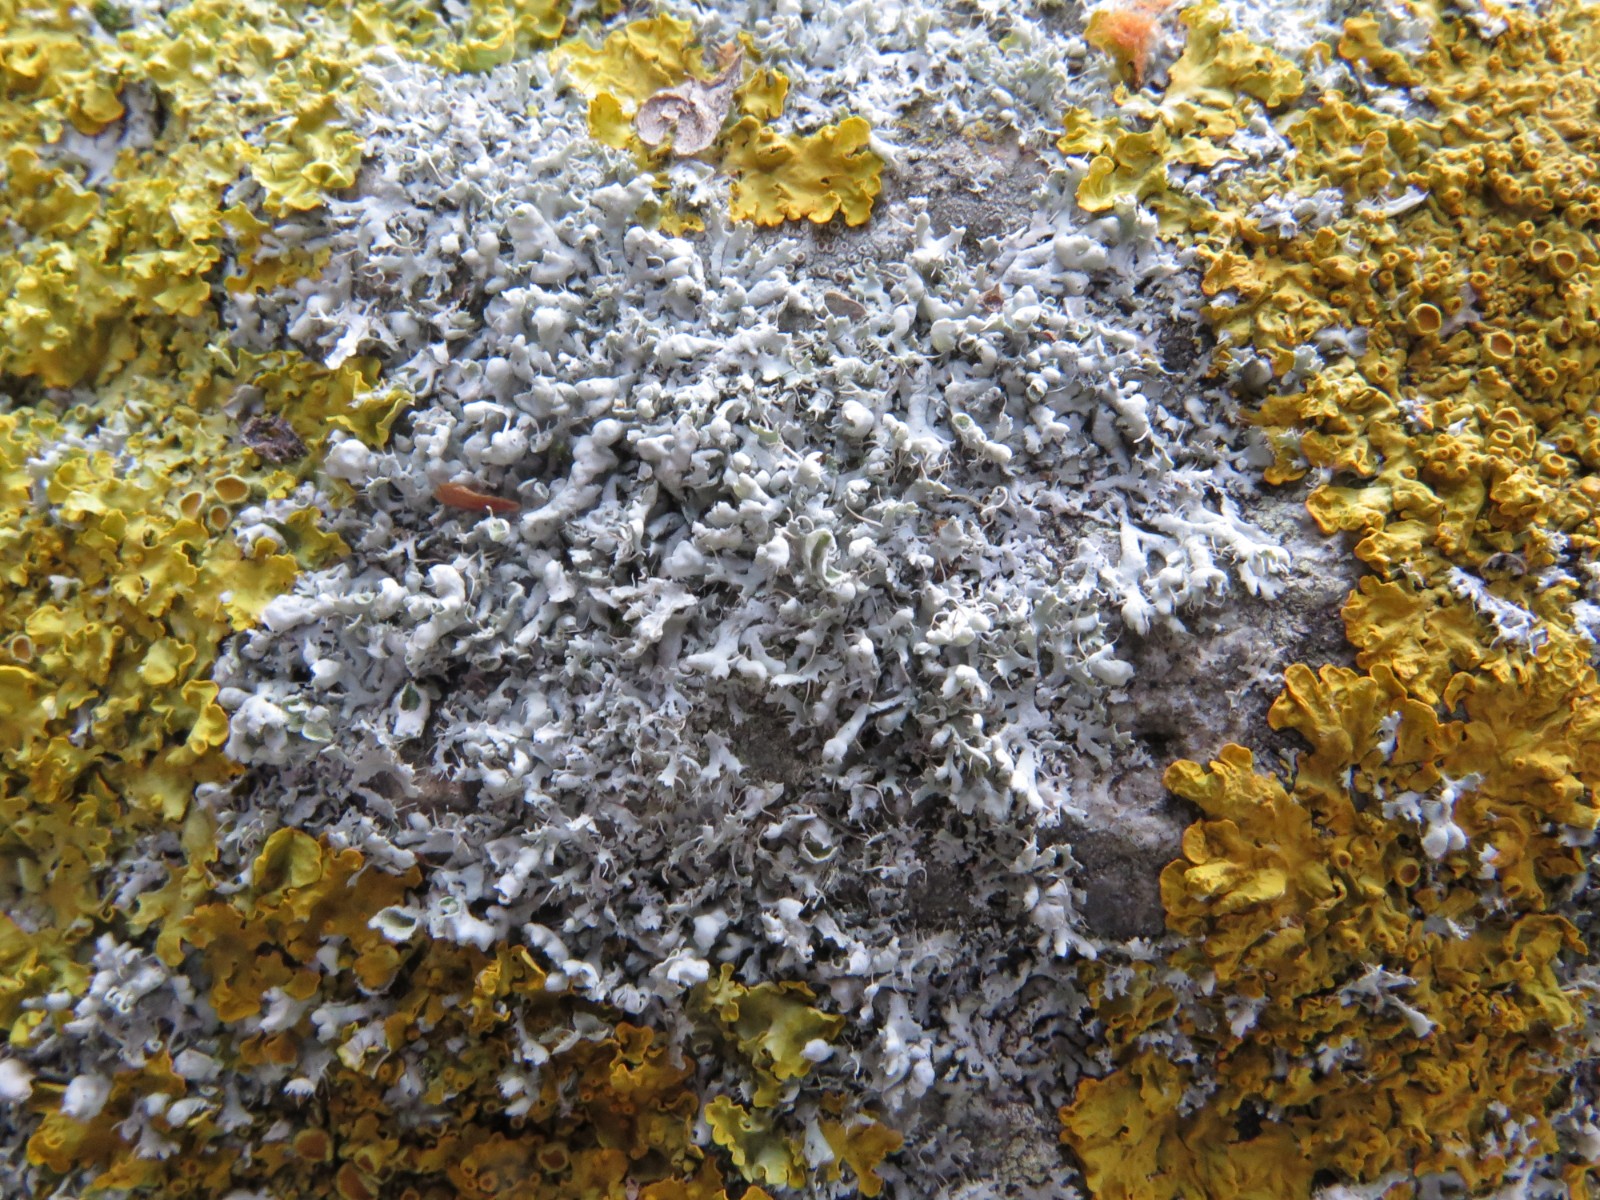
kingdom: Fungi
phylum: Ascomycota
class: Lecanoromycetes
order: Caliciales
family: Physciaceae
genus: Physcia
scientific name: Physcia adscendens
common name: hætte-rosetlav
